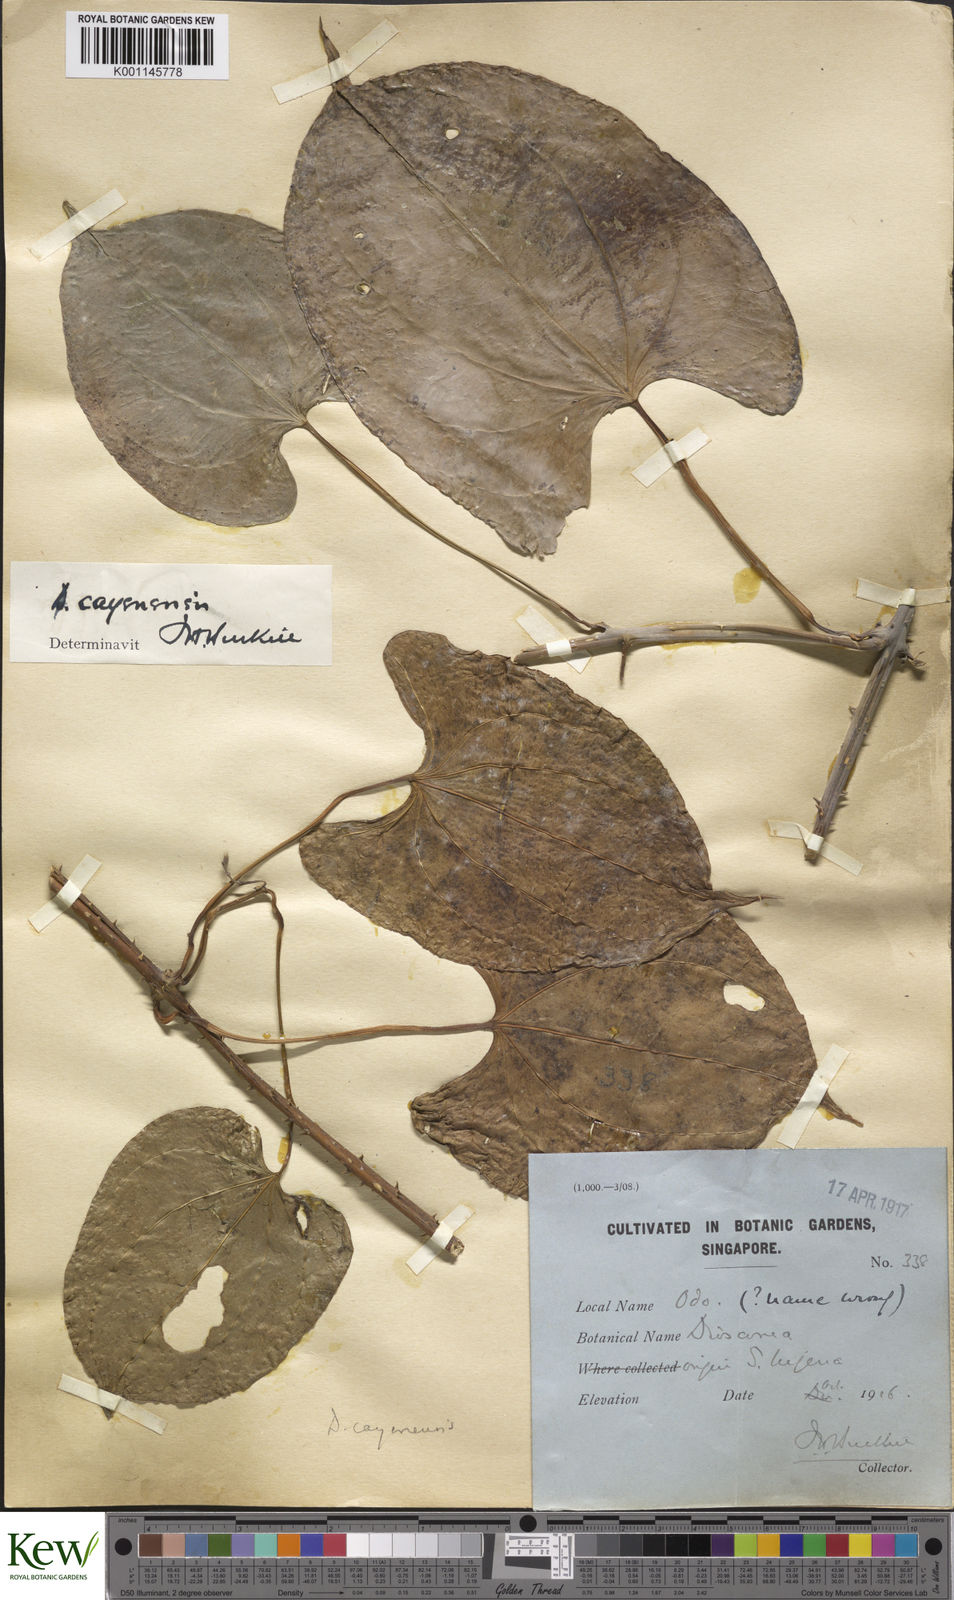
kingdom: Plantae
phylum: Tracheophyta
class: Liliopsida
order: Dioscoreales
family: Dioscoreaceae
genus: Dioscorea
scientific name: Dioscorea cayenensis
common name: Attoto yam
